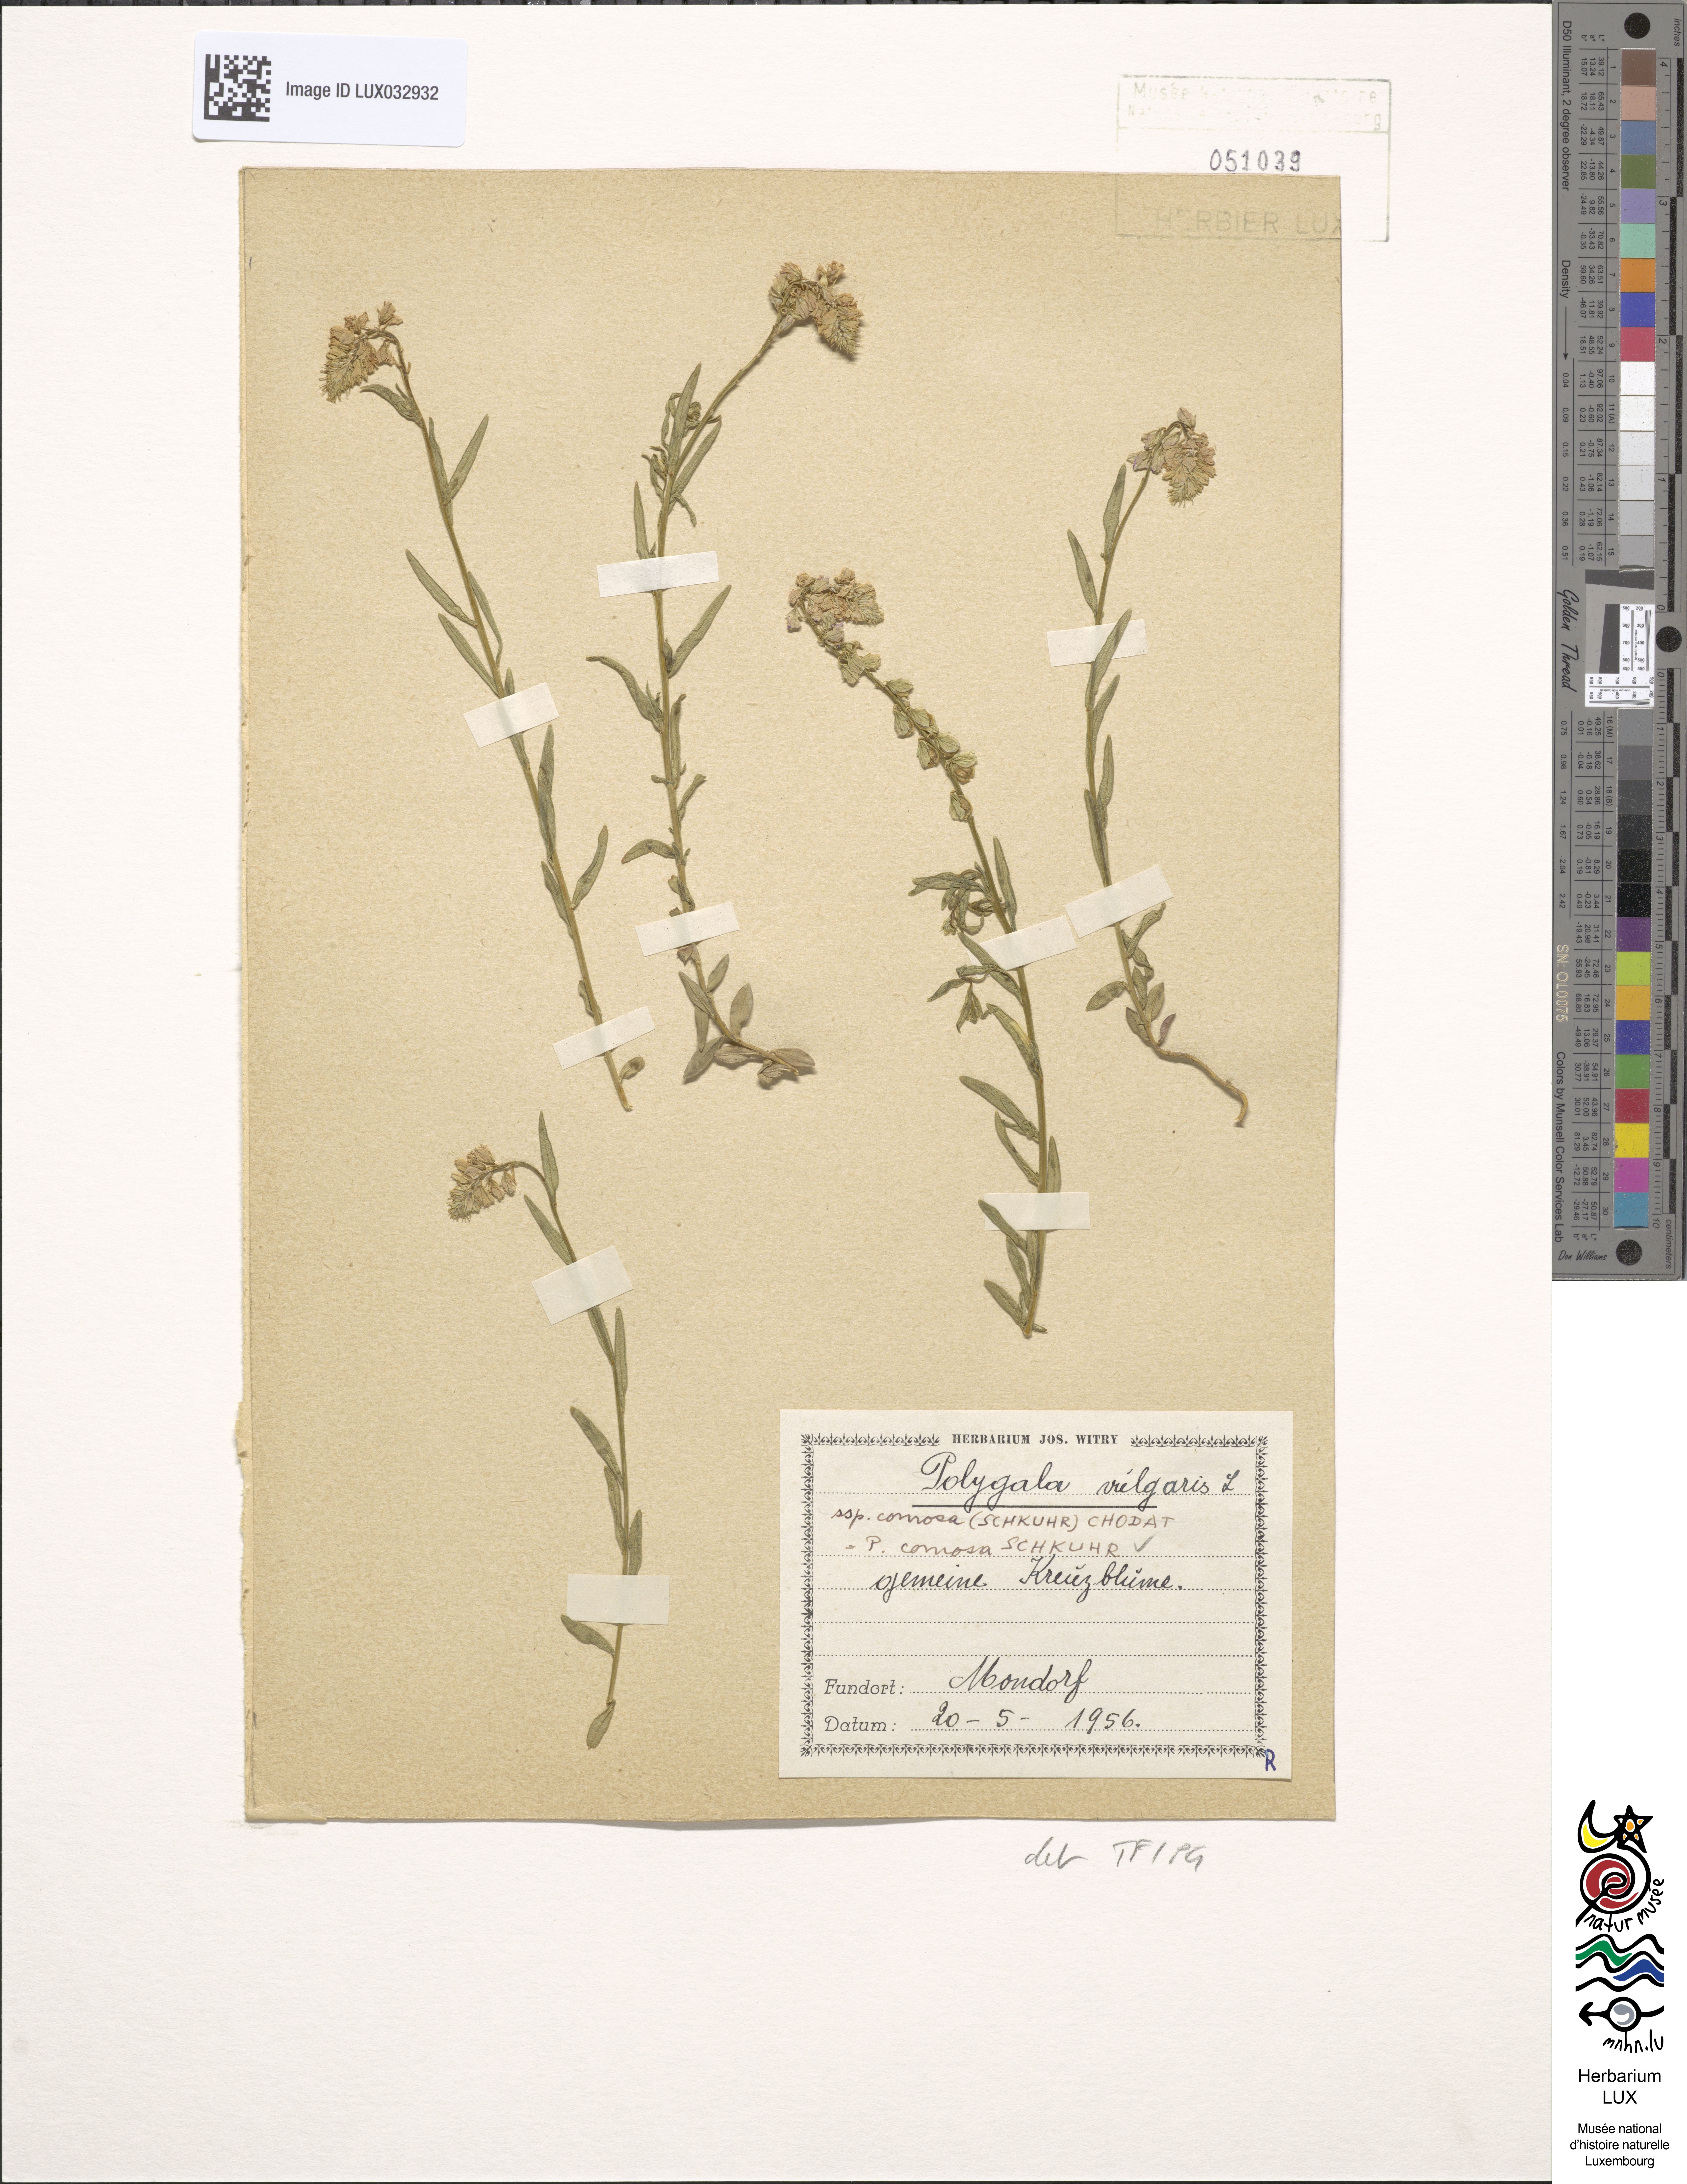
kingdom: Plantae
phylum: Tracheophyta
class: Magnoliopsida
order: Fabales
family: Polygalaceae
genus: Polygala
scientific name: Polygala comosa
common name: Tufted milkwort
